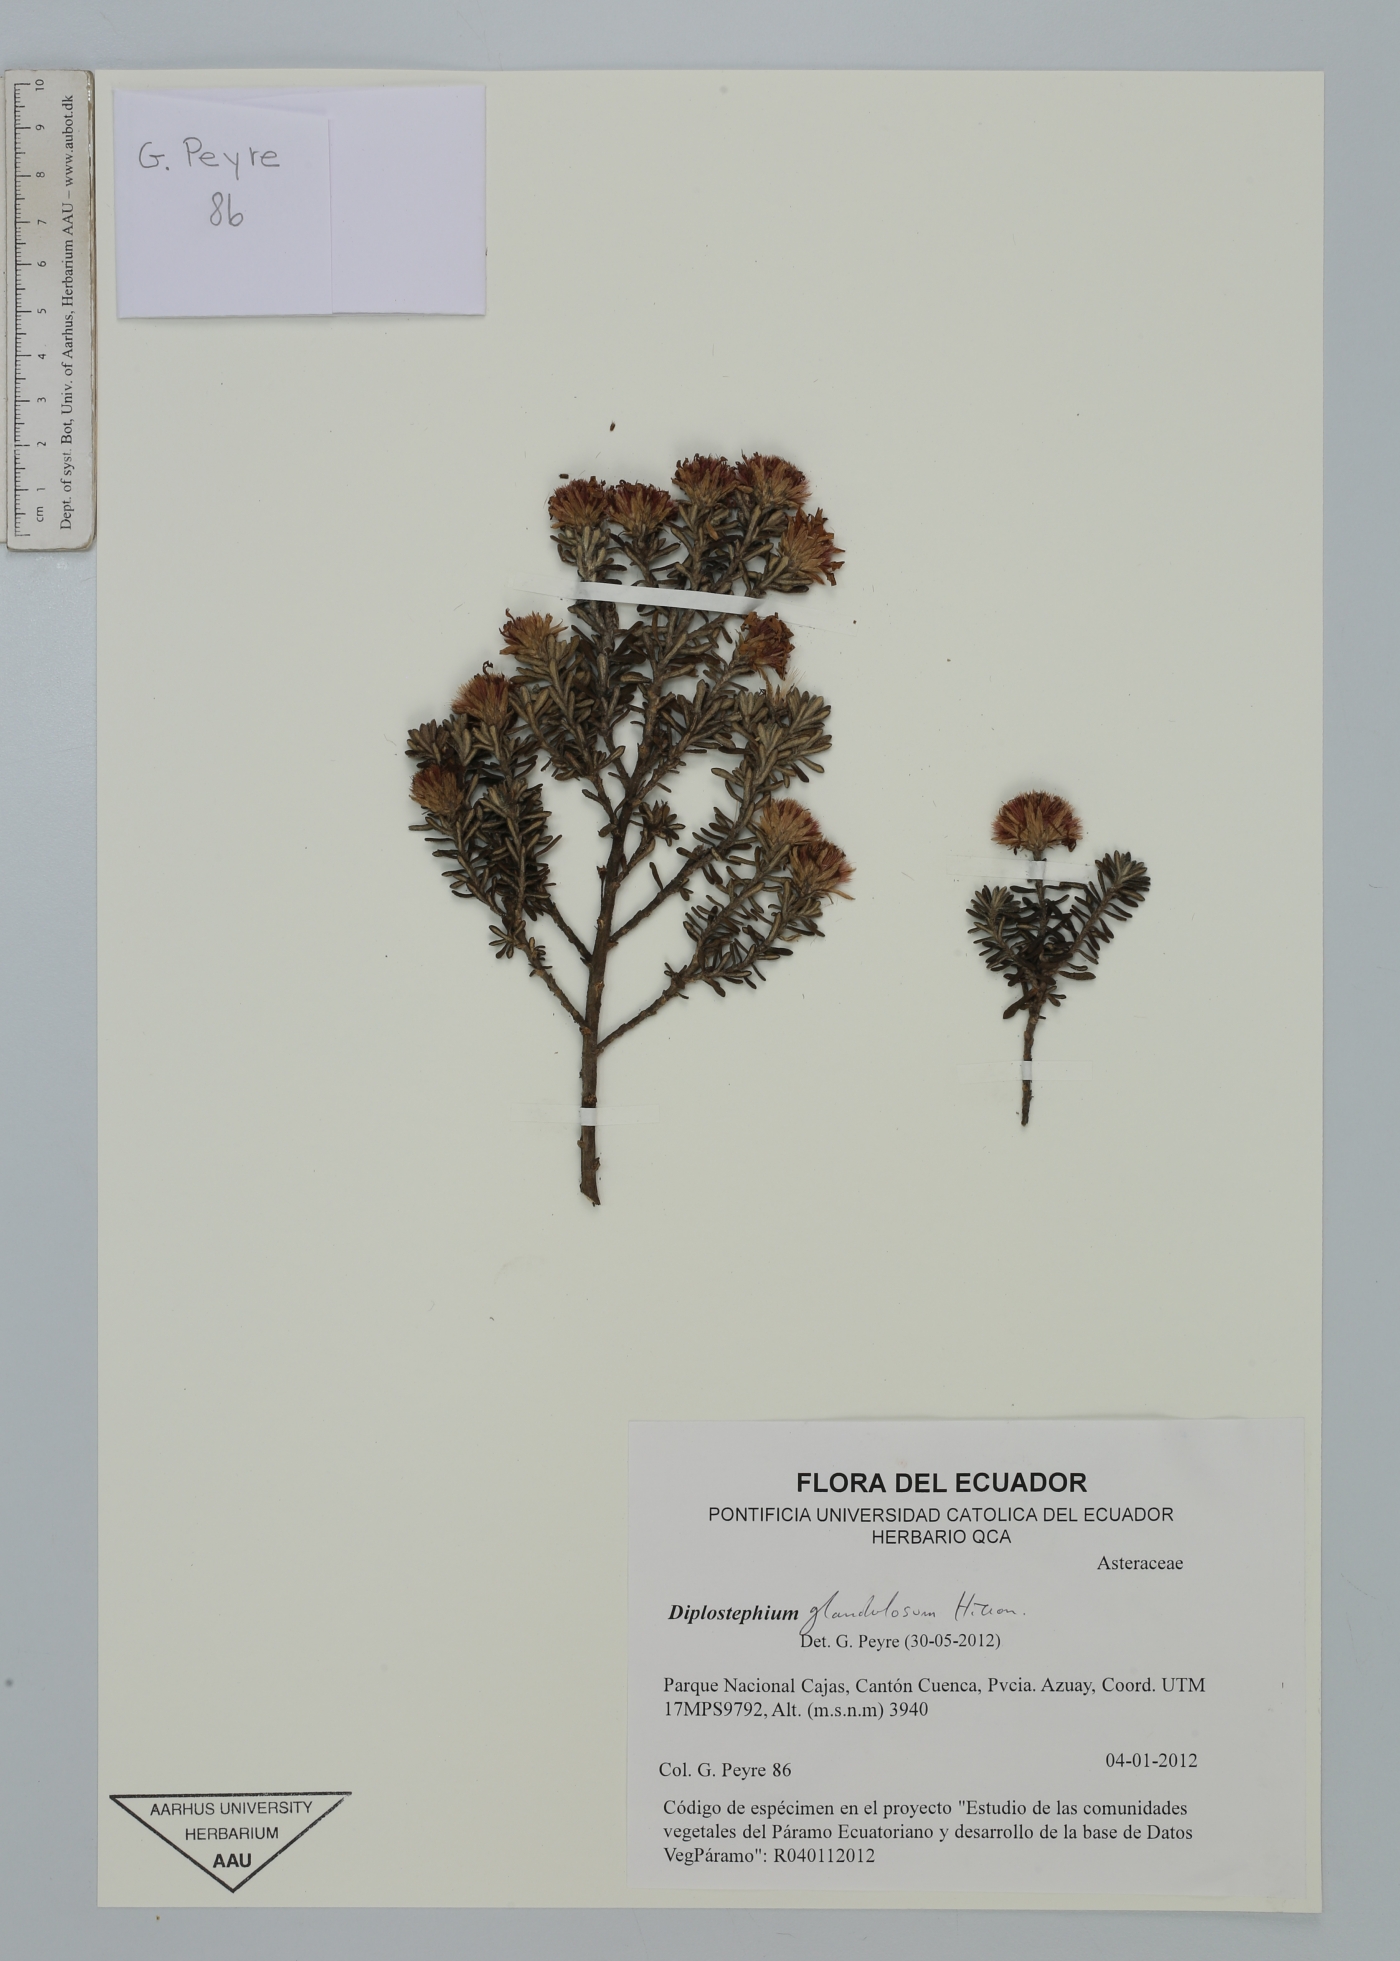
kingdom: Plantae
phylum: Tracheophyta
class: Magnoliopsida
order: Asterales
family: Asteraceae
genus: Diplostephium
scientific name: Diplostephium glandulosum
